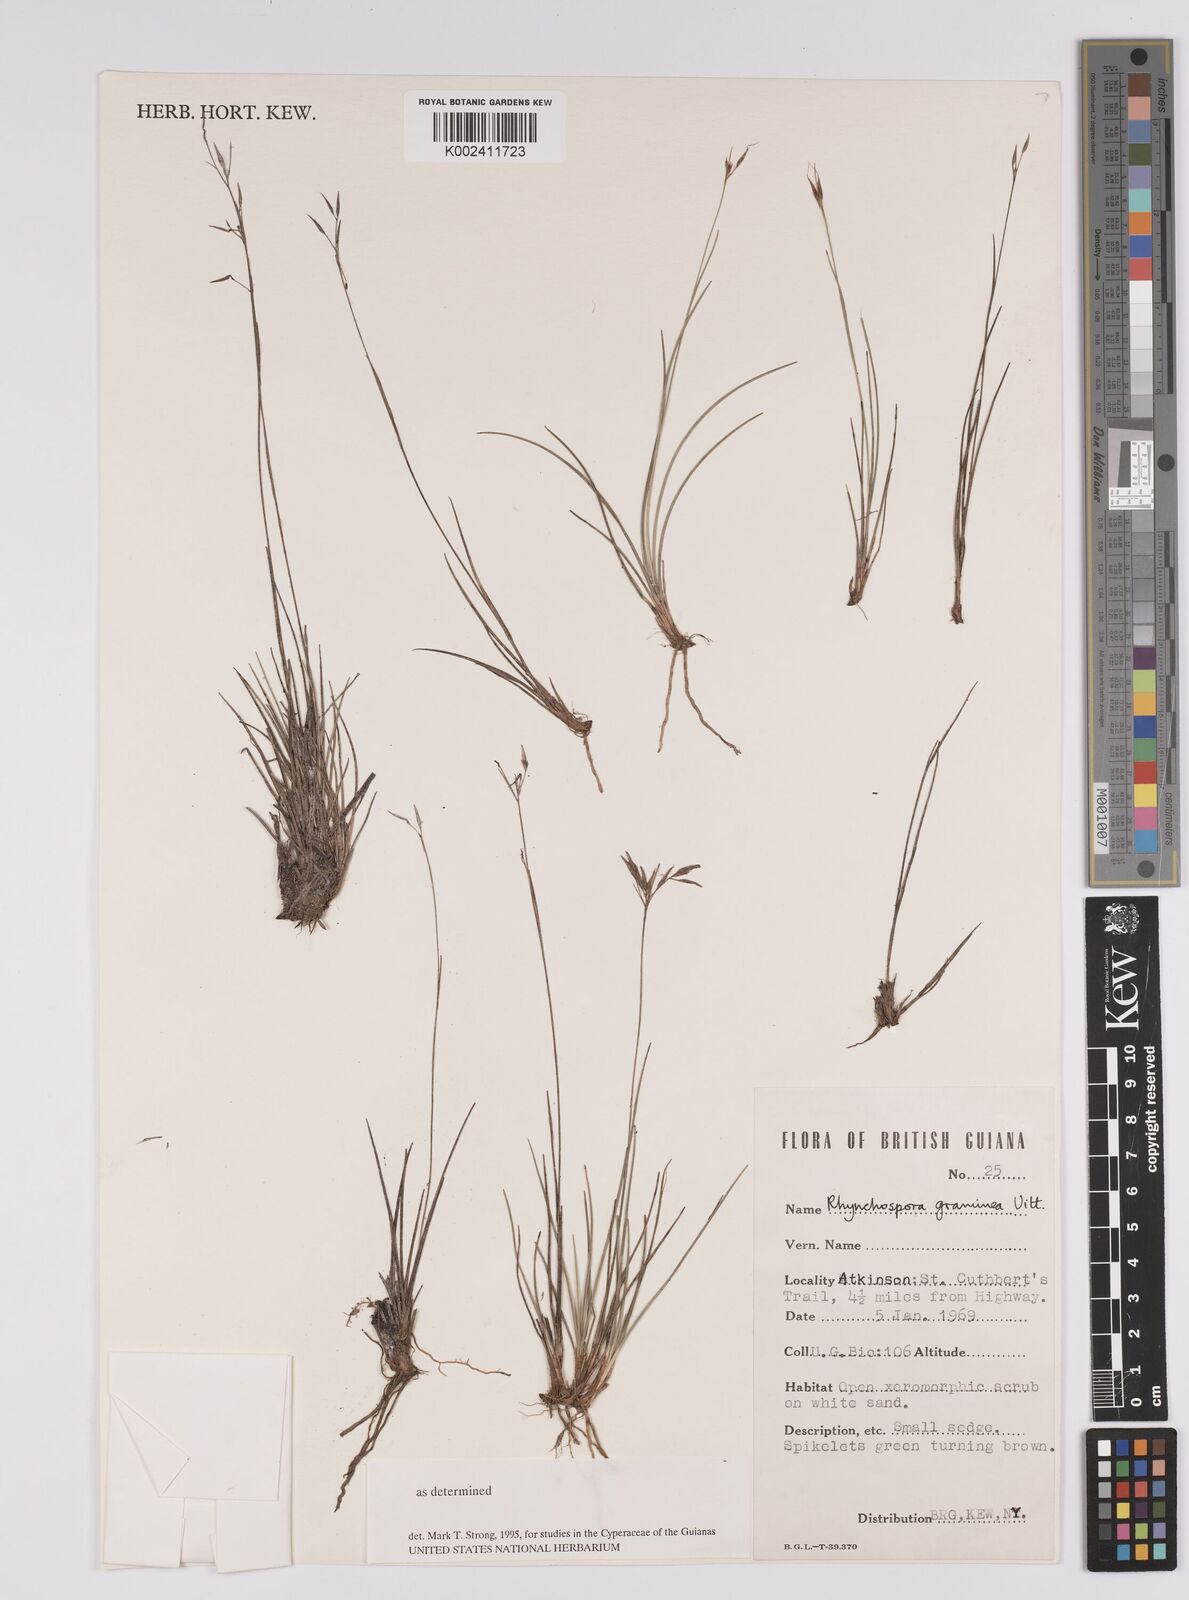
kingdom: Plantae
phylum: Tracheophyta
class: Liliopsida
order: Poales
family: Cyperaceae
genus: Rhynchospora
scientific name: Rhynchospora spruceana
